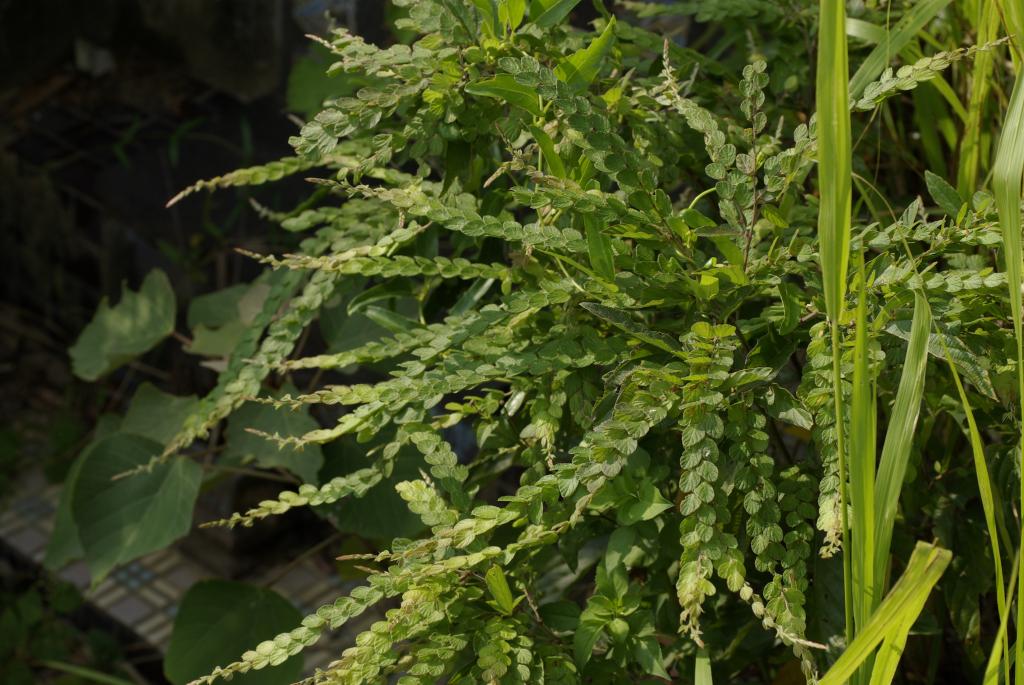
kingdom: Plantae
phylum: Tracheophyta
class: Magnoliopsida
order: Fabales
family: Fabaceae
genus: Phyllodium
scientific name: Phyllodium pulchellum
